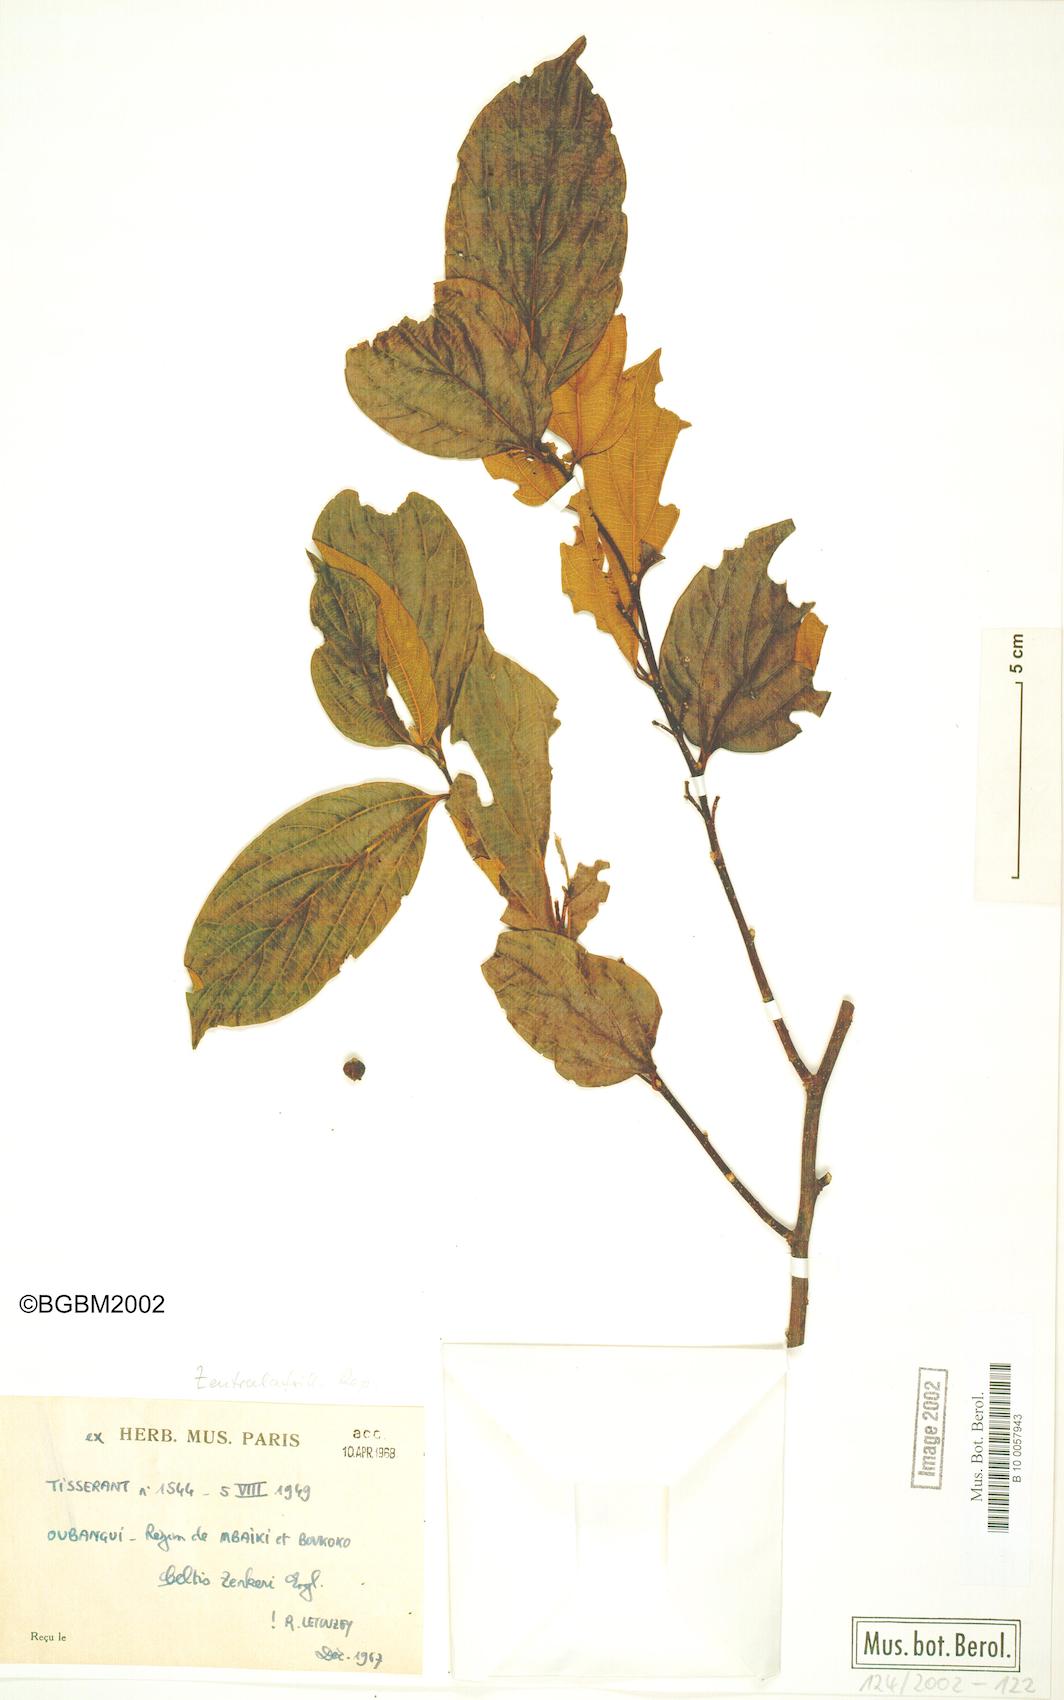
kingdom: Plantae
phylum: Tracheophyta
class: Magnoliopsida
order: Rosales
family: Cannabaceae
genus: Celtis
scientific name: Celtis zenkeri
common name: African celtis
